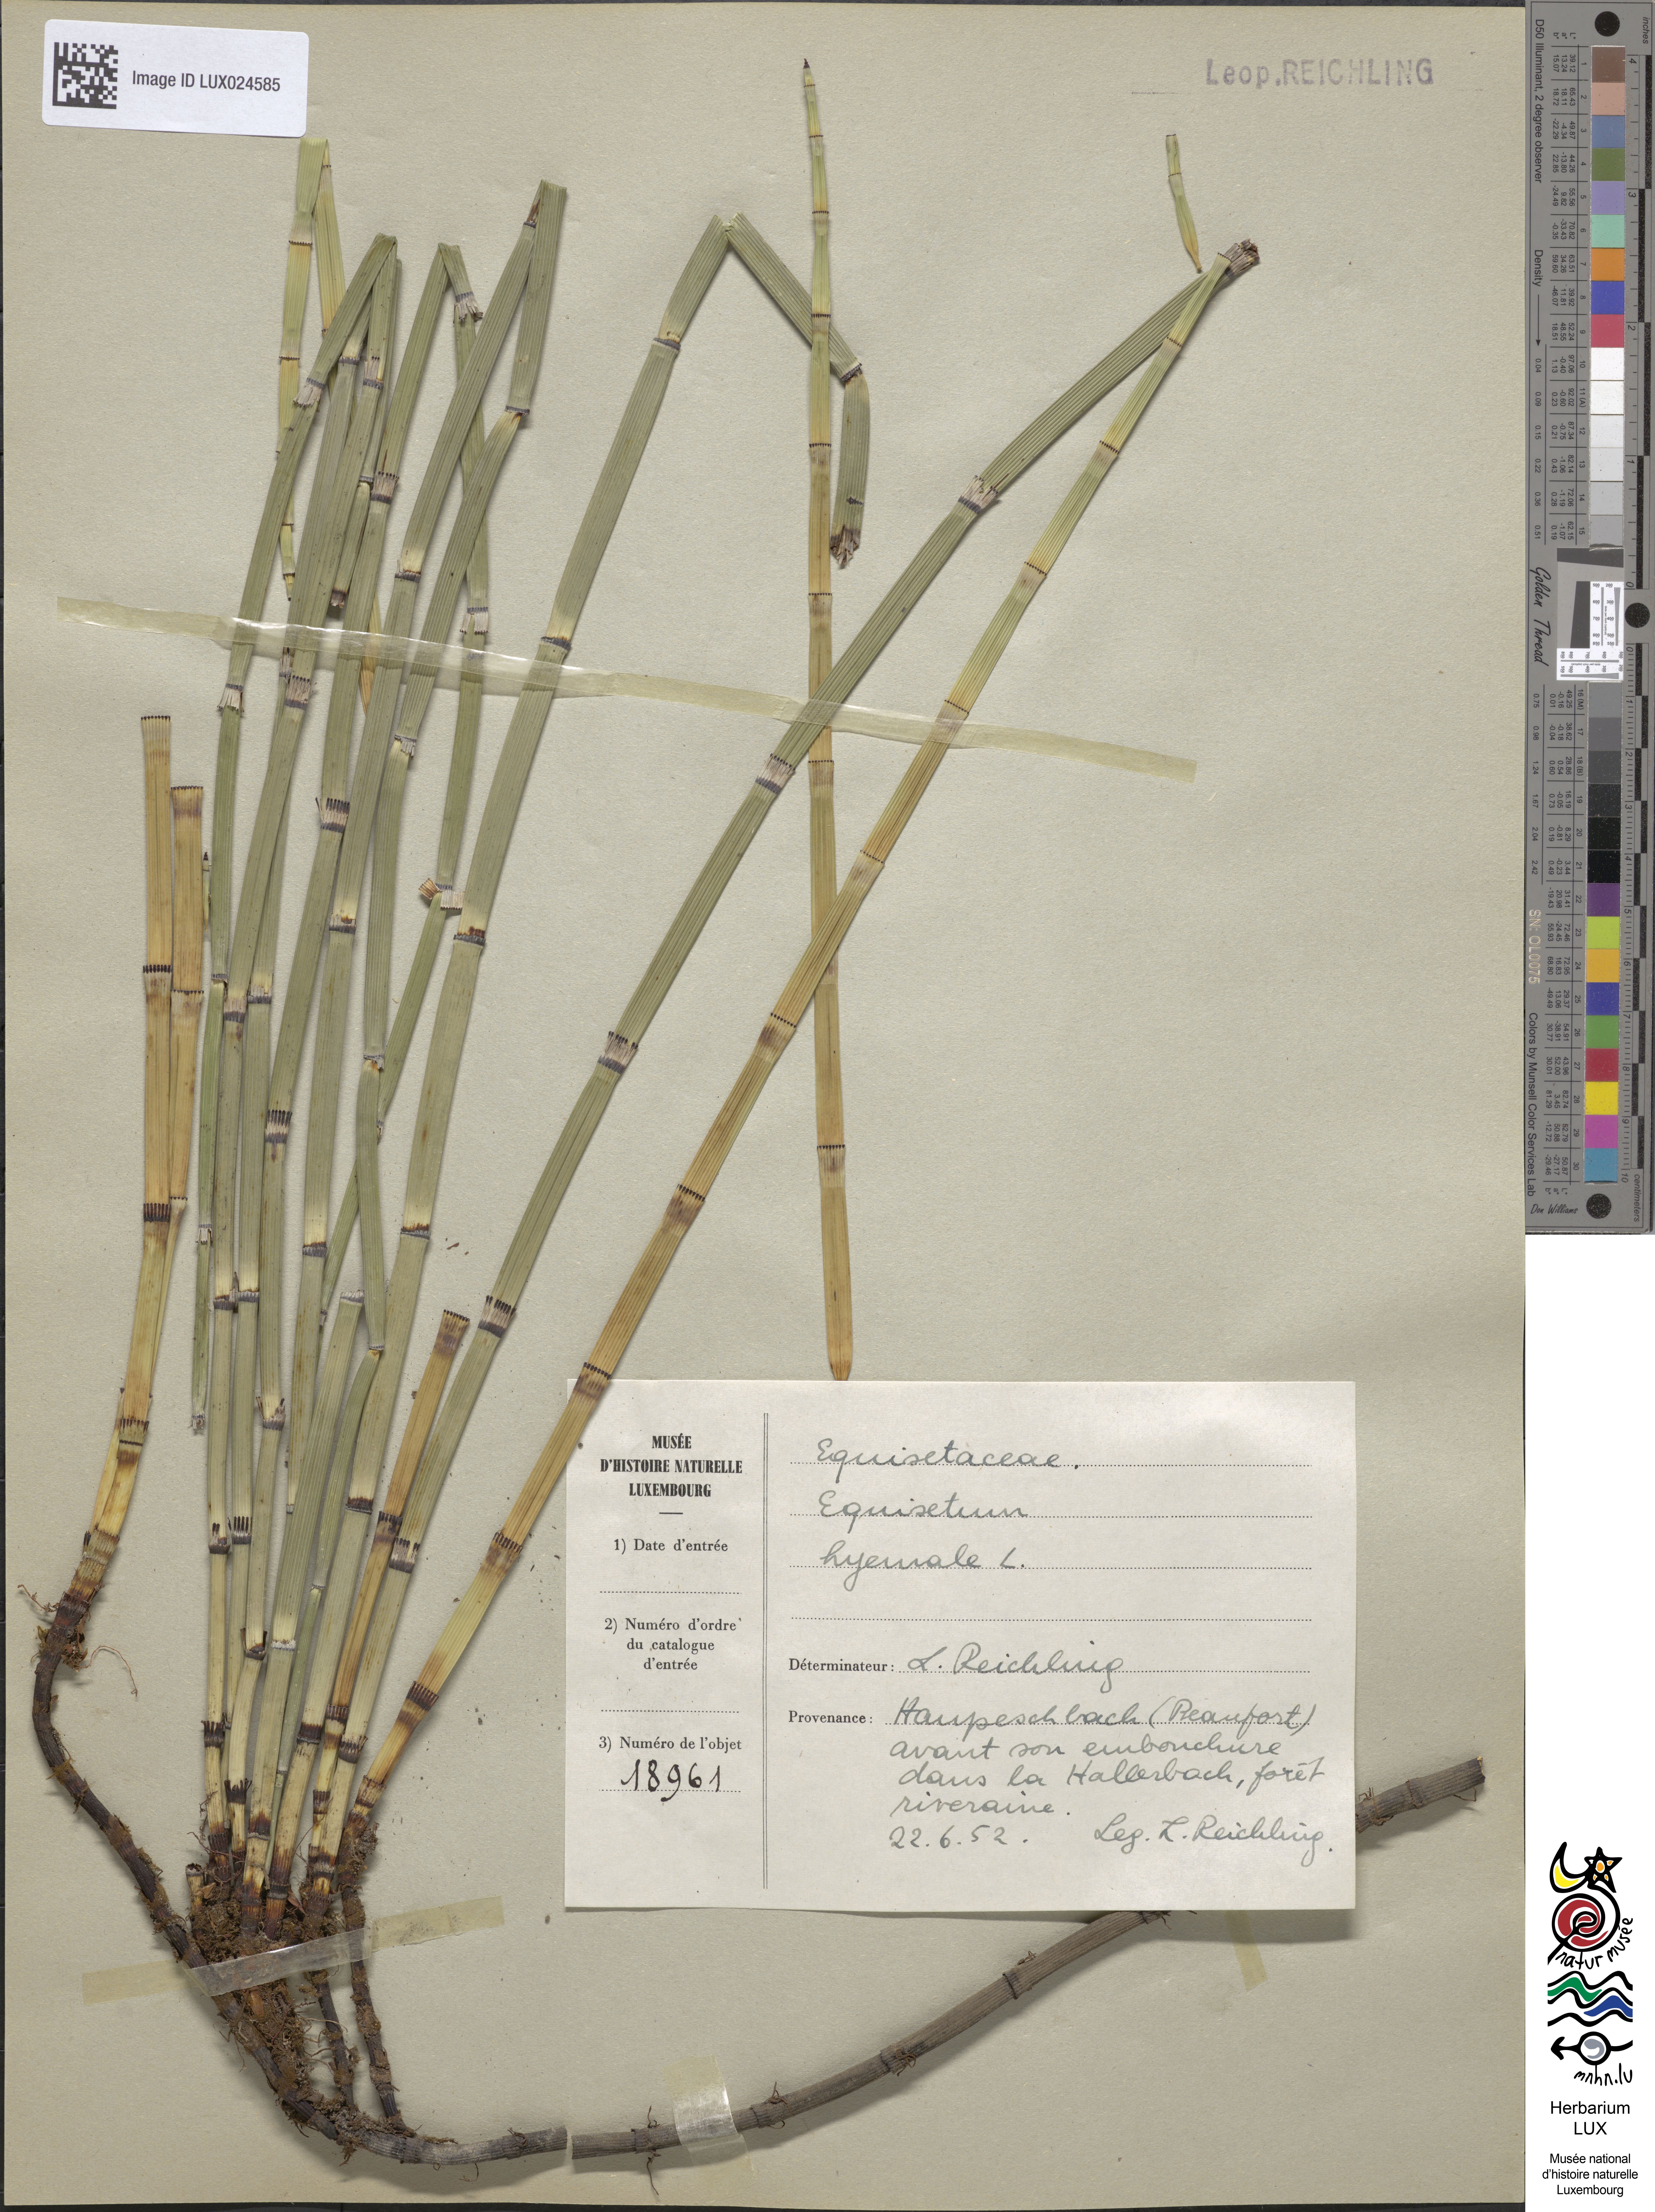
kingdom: Plantae
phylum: Tracheophyta
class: Polypodiopsida
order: Equisetales
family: Equisetaceae
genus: Equisetum
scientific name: Equisetum hyemale
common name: Rough horsetail
